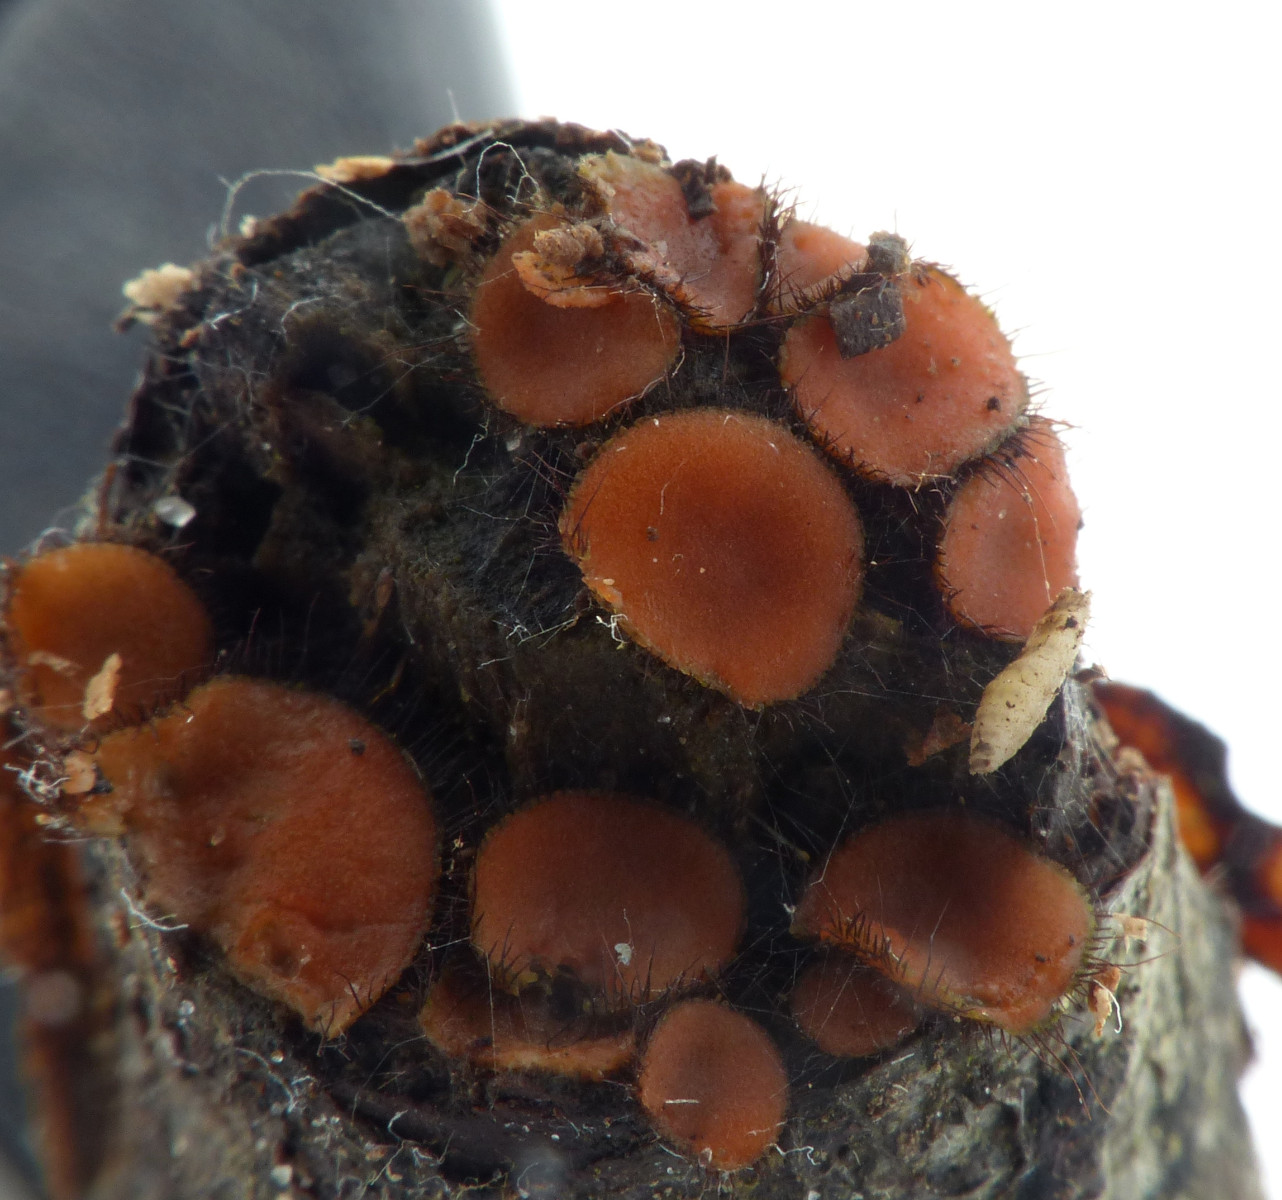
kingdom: Fungi
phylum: Ascomycota
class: Pezizomycetes
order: Pezizales
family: Pyronemataceae
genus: Scutellinia
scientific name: Scutellinia scutellata
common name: frynset skjoldbæger
